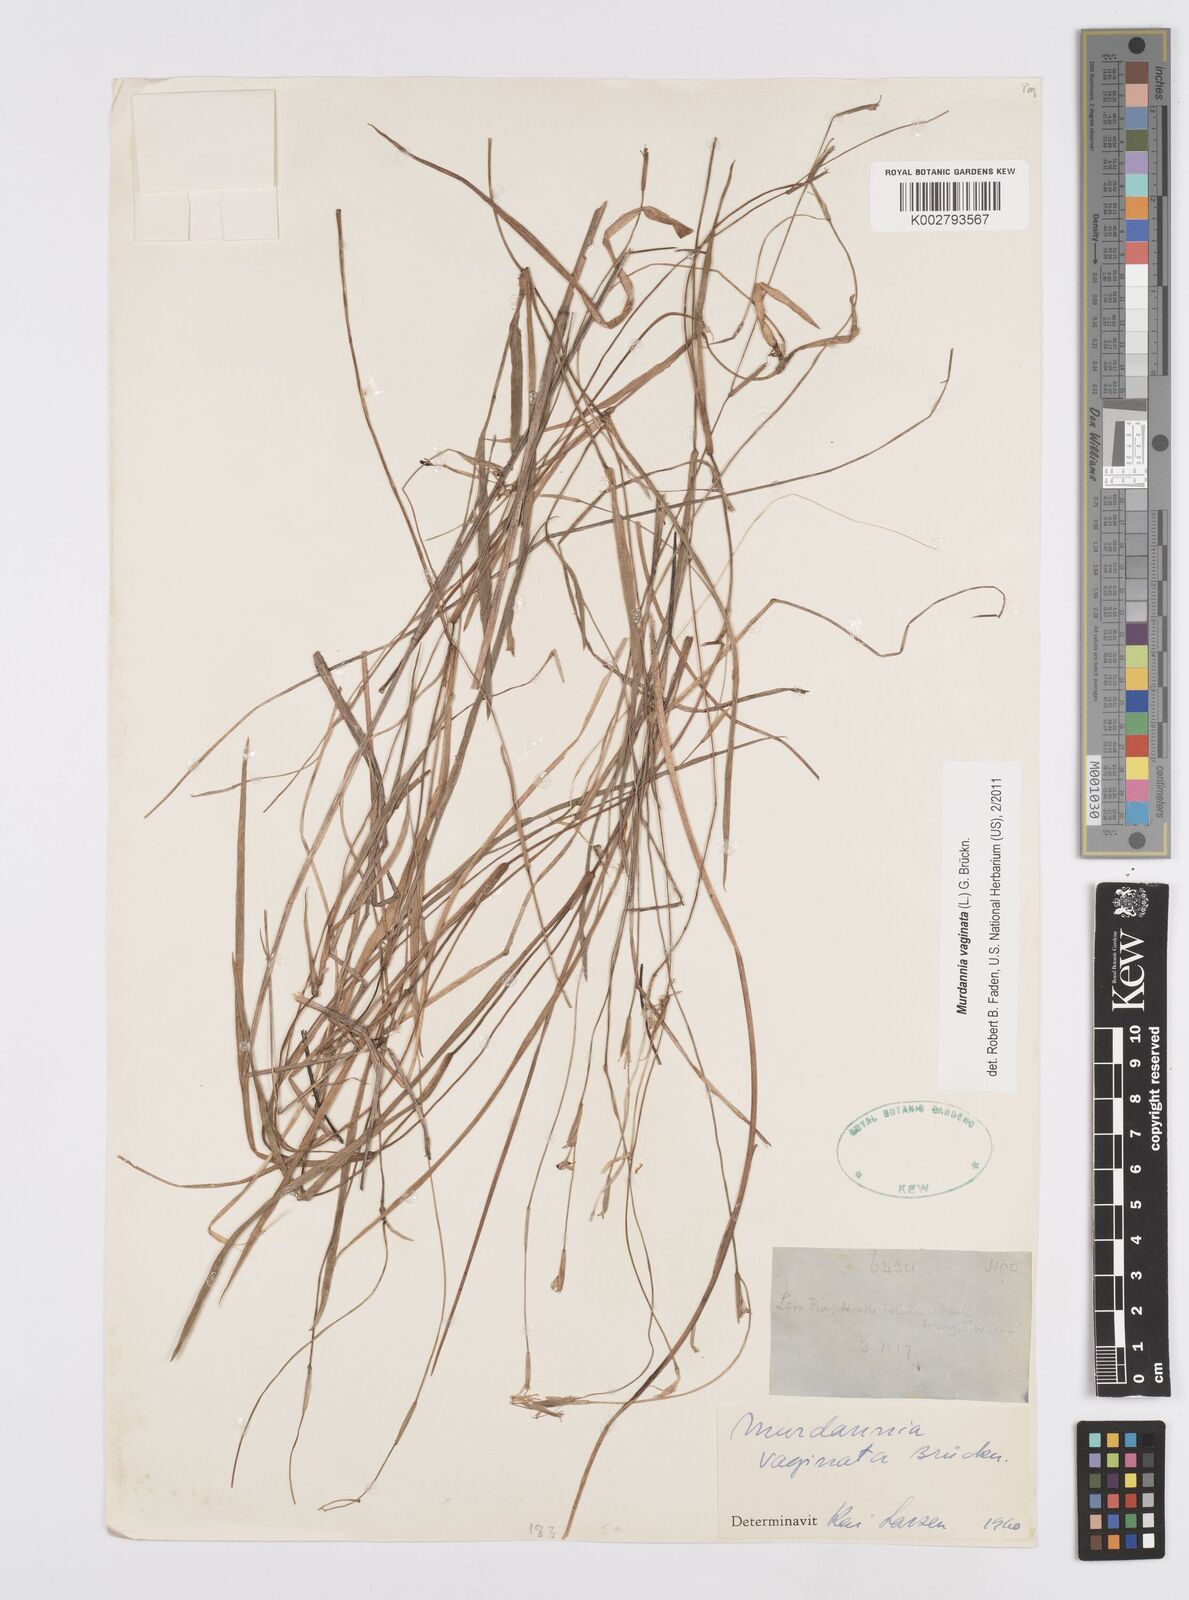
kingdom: Plantae
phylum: Tracheophyta
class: Liliopsida
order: Commelinales
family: Commelinaceae
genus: Murdannia
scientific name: Murdannia vaginata
